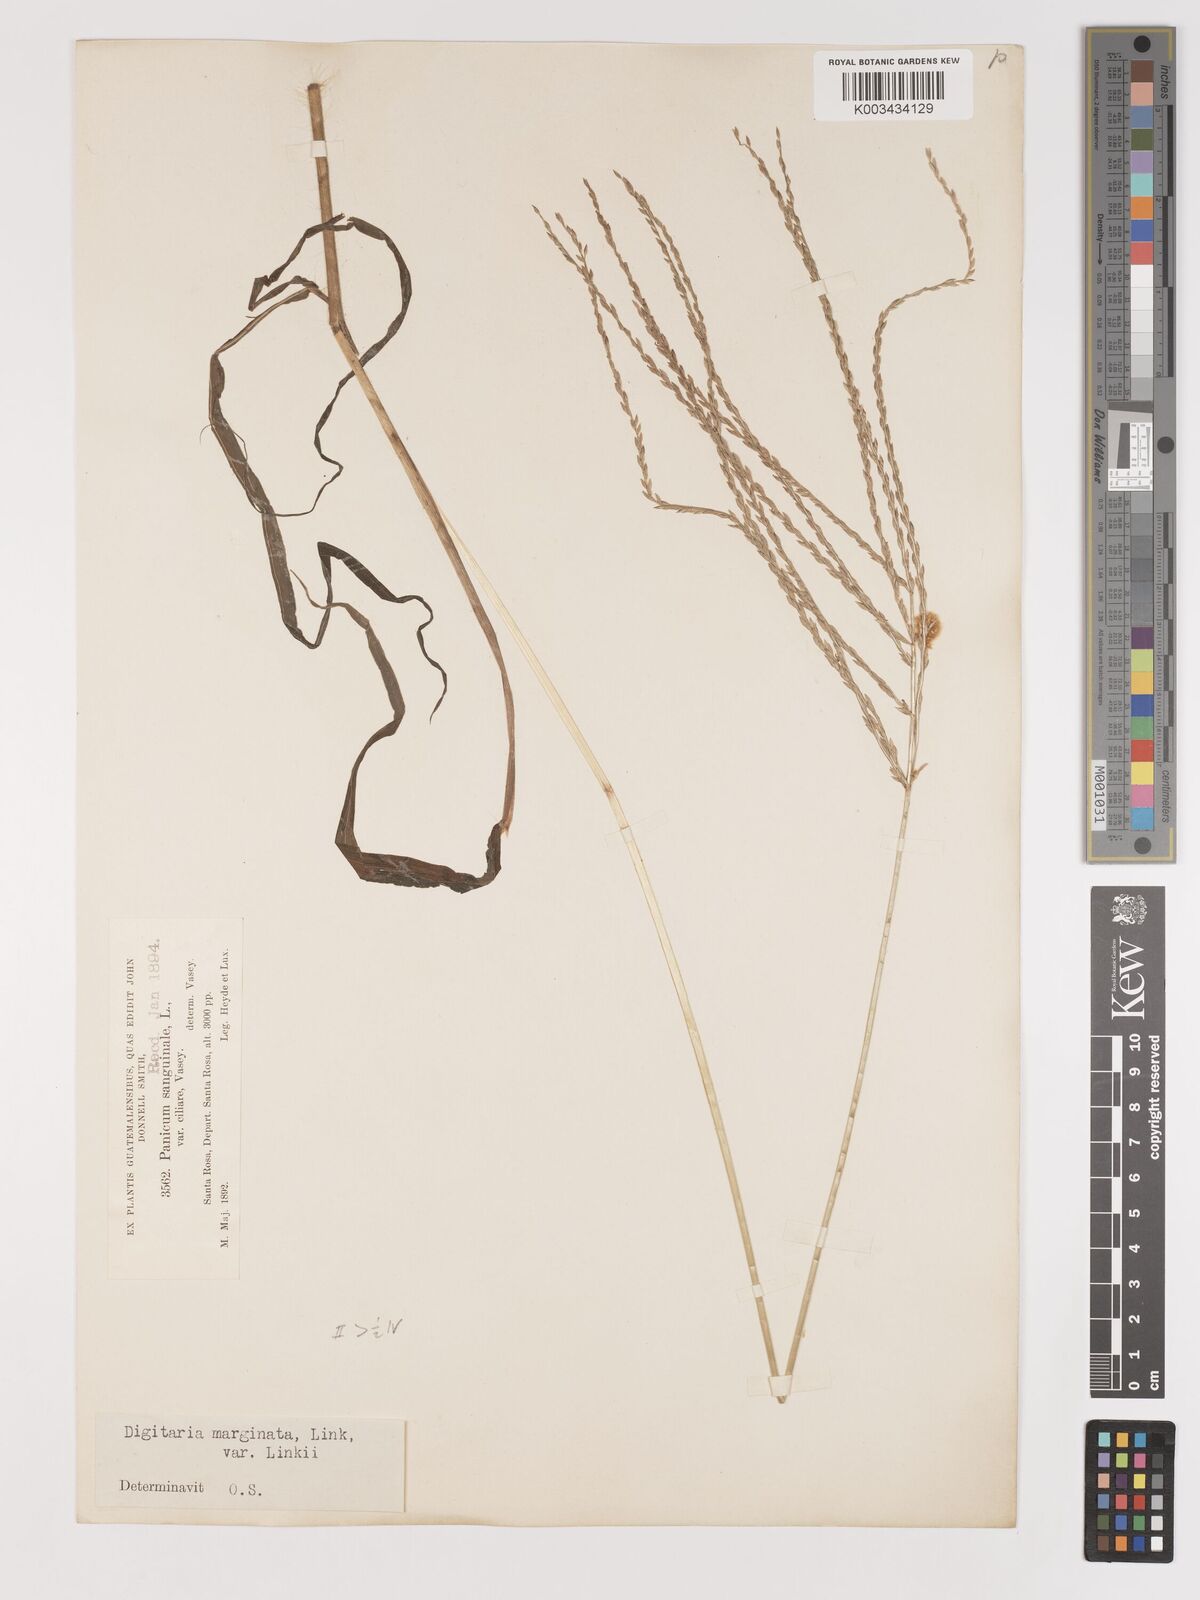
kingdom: Plantae
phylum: Tracheophyta
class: Liliopsida
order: Poales
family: Poaceae
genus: Digitaria
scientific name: Digitaria ciliaris
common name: Tropical finger-grass
